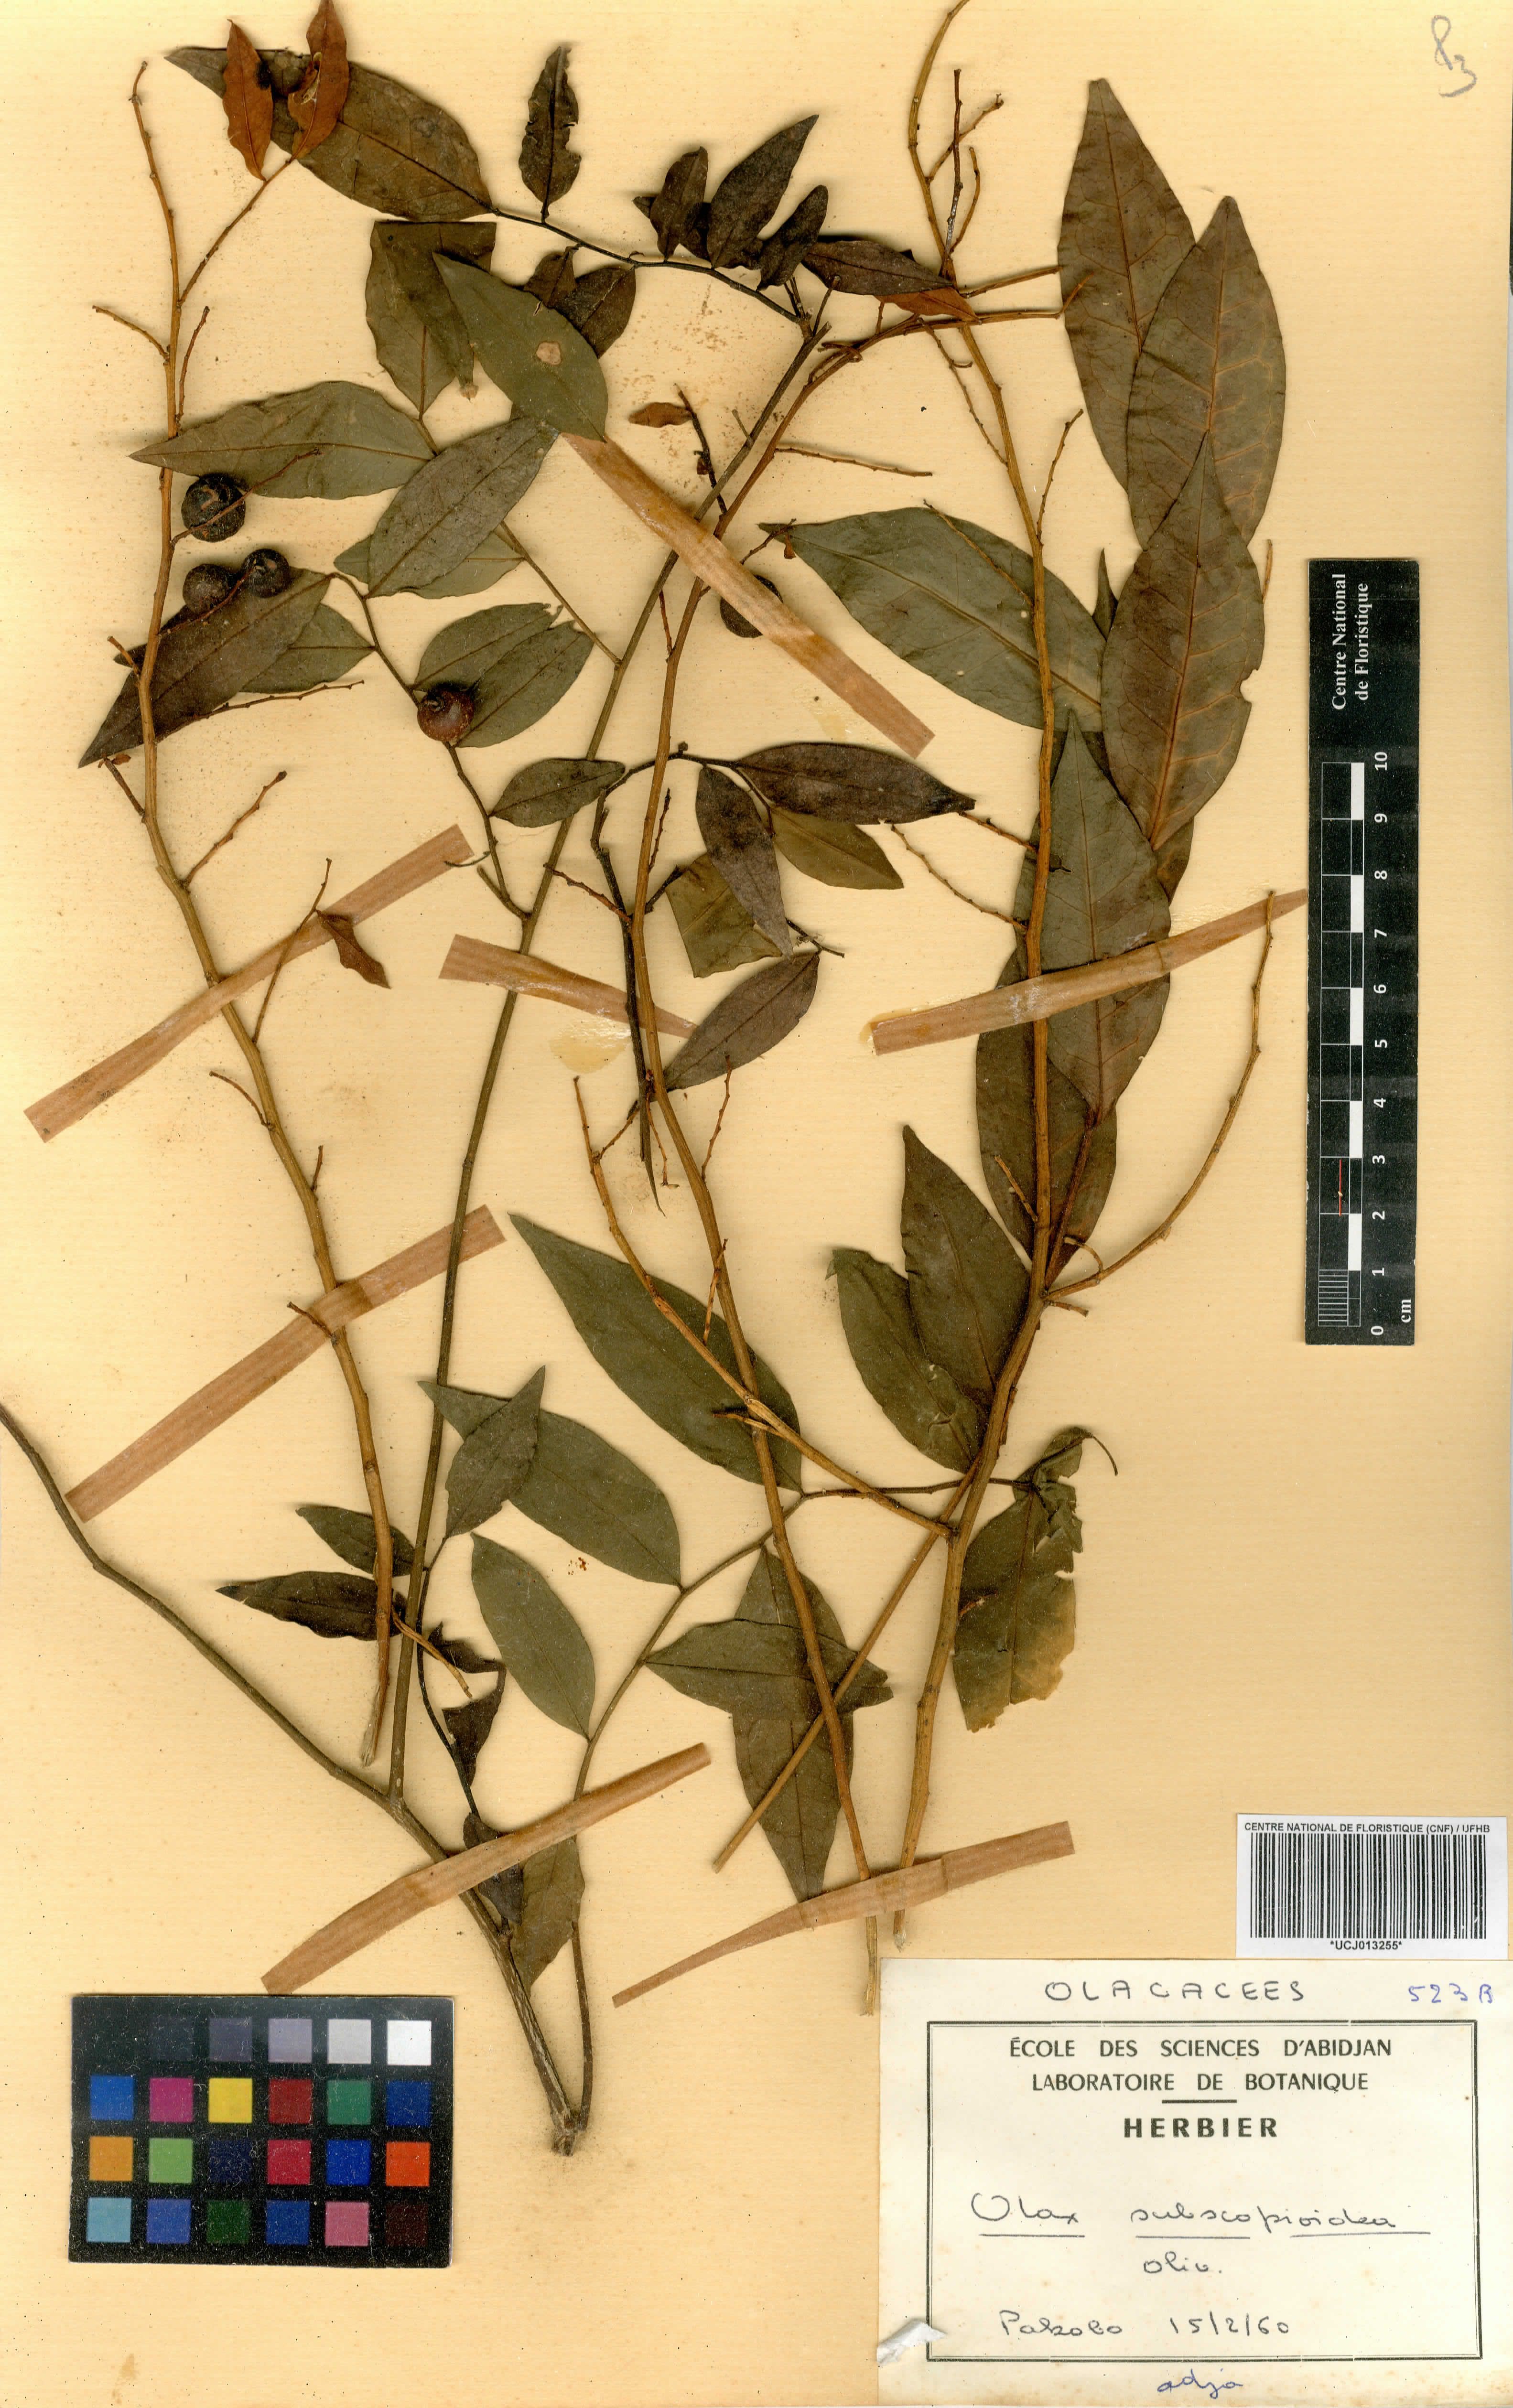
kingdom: Plantae
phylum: Tracheophyta
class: Magnoliopsida
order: Santalales
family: Olacaceae
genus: Olax
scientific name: Olax subscorpioides
